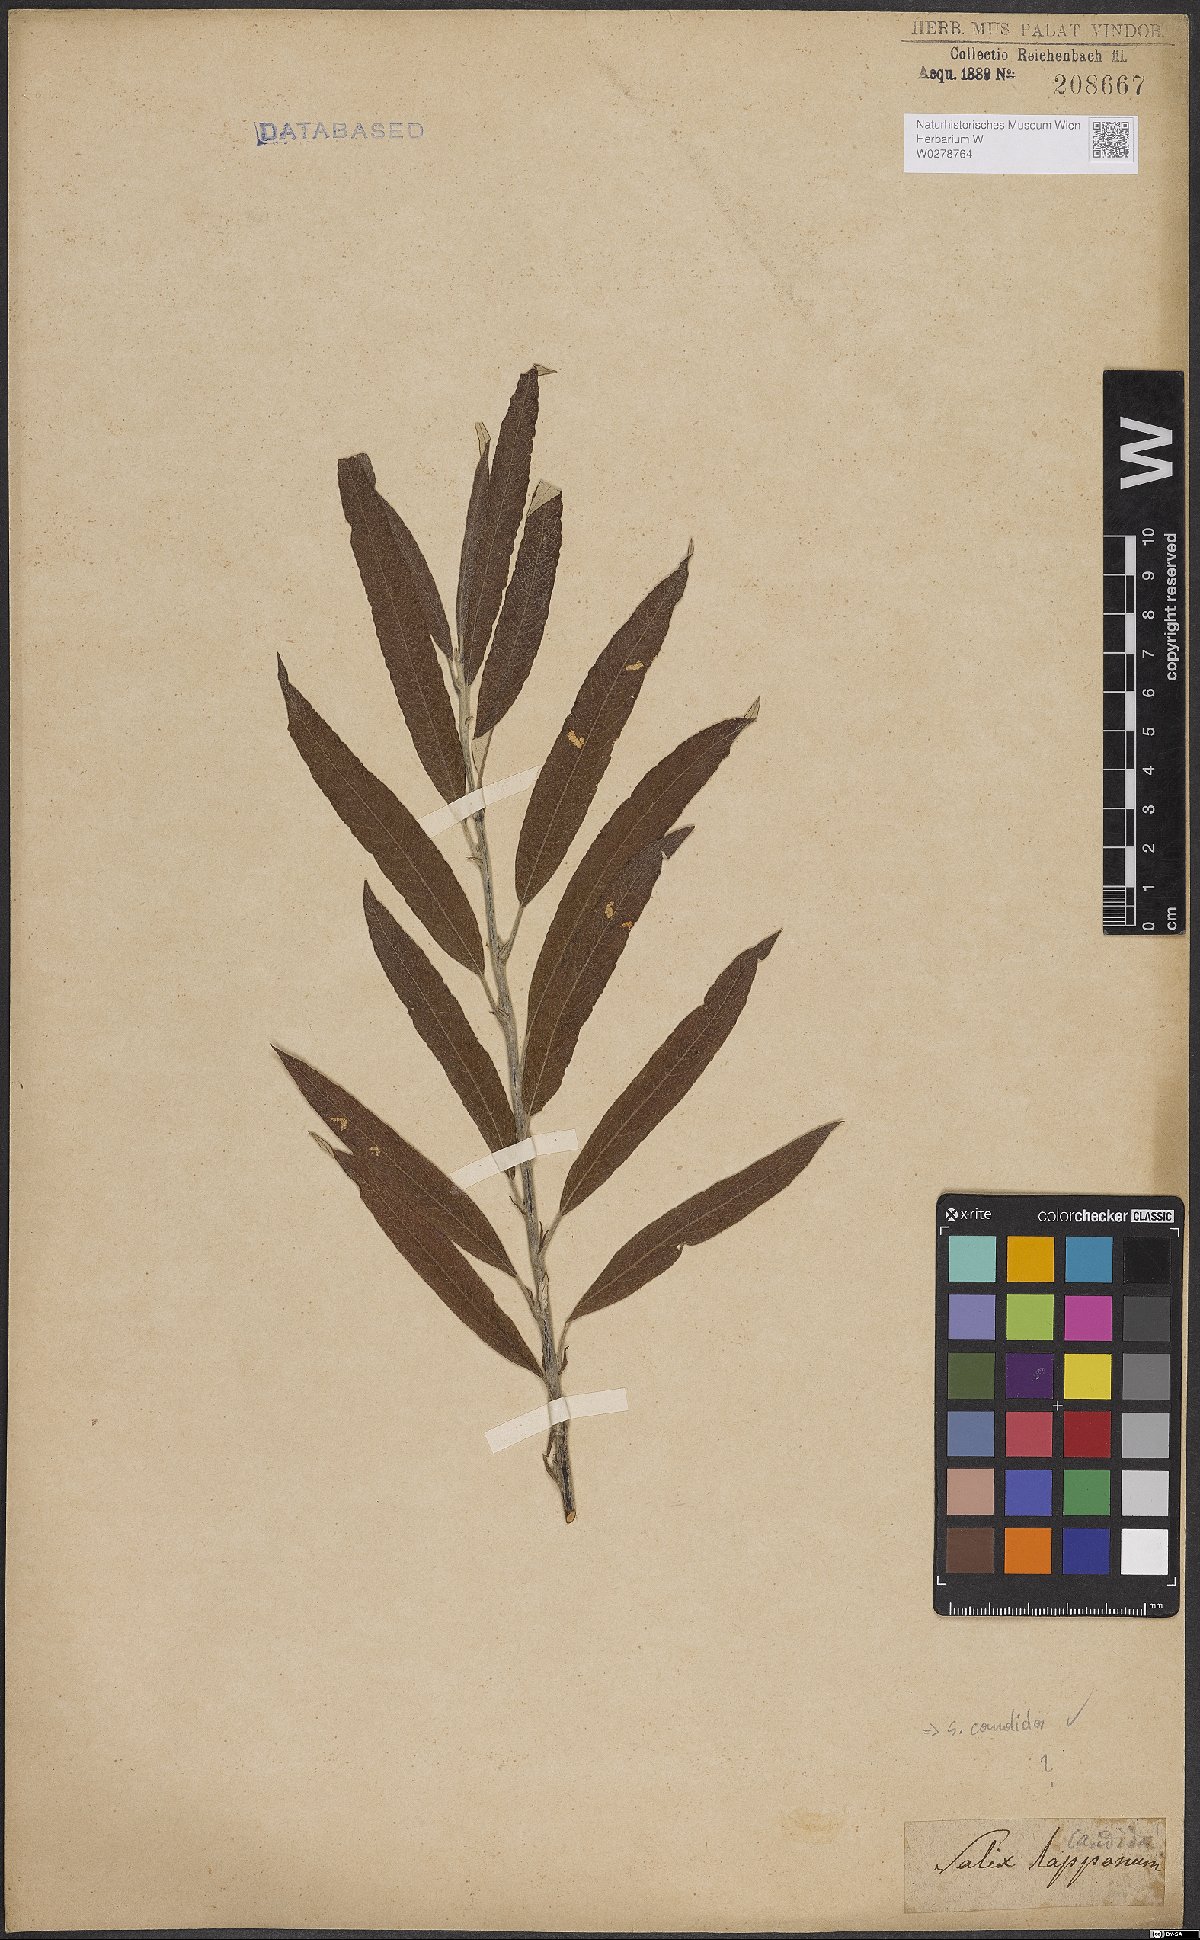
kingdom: Plantae
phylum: Tracheophyta
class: Magnoliopsida
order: Malpighiales
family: Salicaceae
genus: Salix
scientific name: Salix candida
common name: Hoary willow
